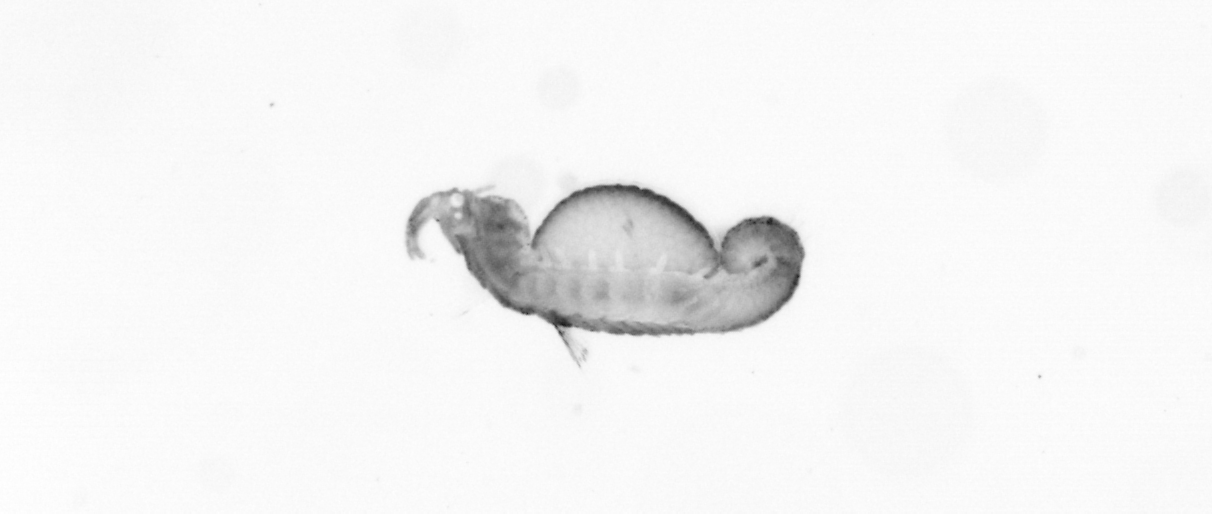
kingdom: Animalia
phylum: Annelida
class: Polychaeta
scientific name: Polychaeta
